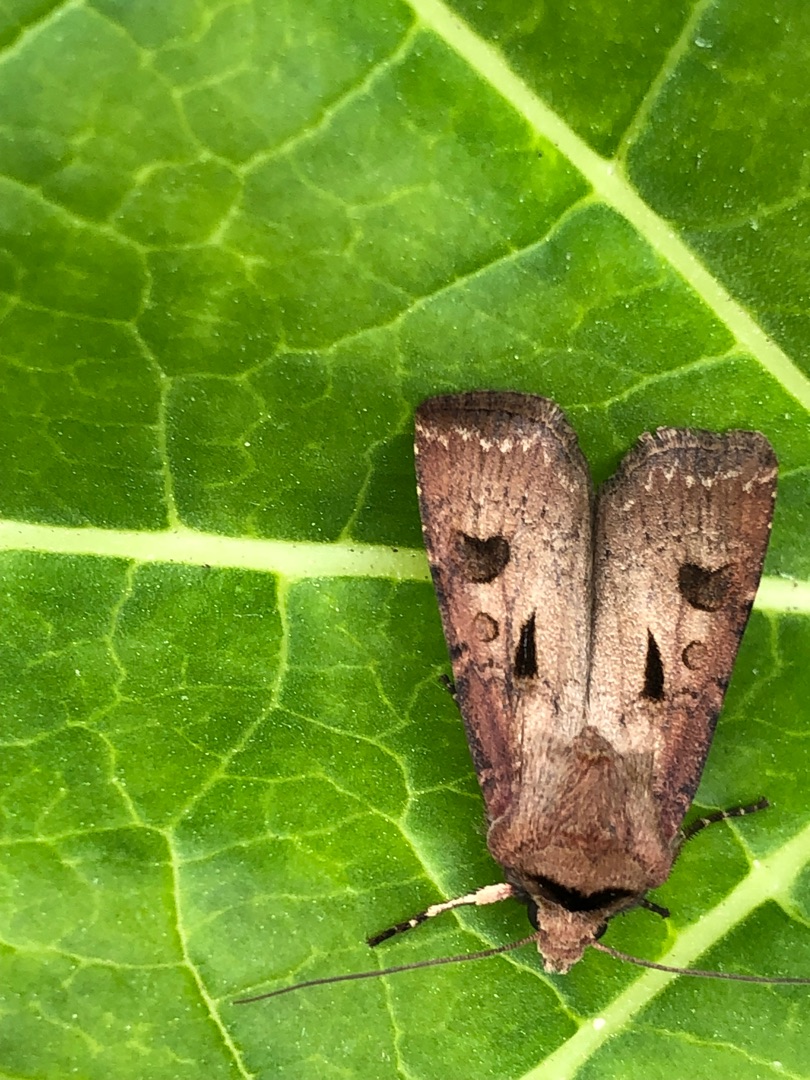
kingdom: Animalia
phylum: Arthropoda
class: Insecta
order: Lepidoptera
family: Noctuidae
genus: Agrotis
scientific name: Agrotis exclamationis
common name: Udråbstegnsugle
